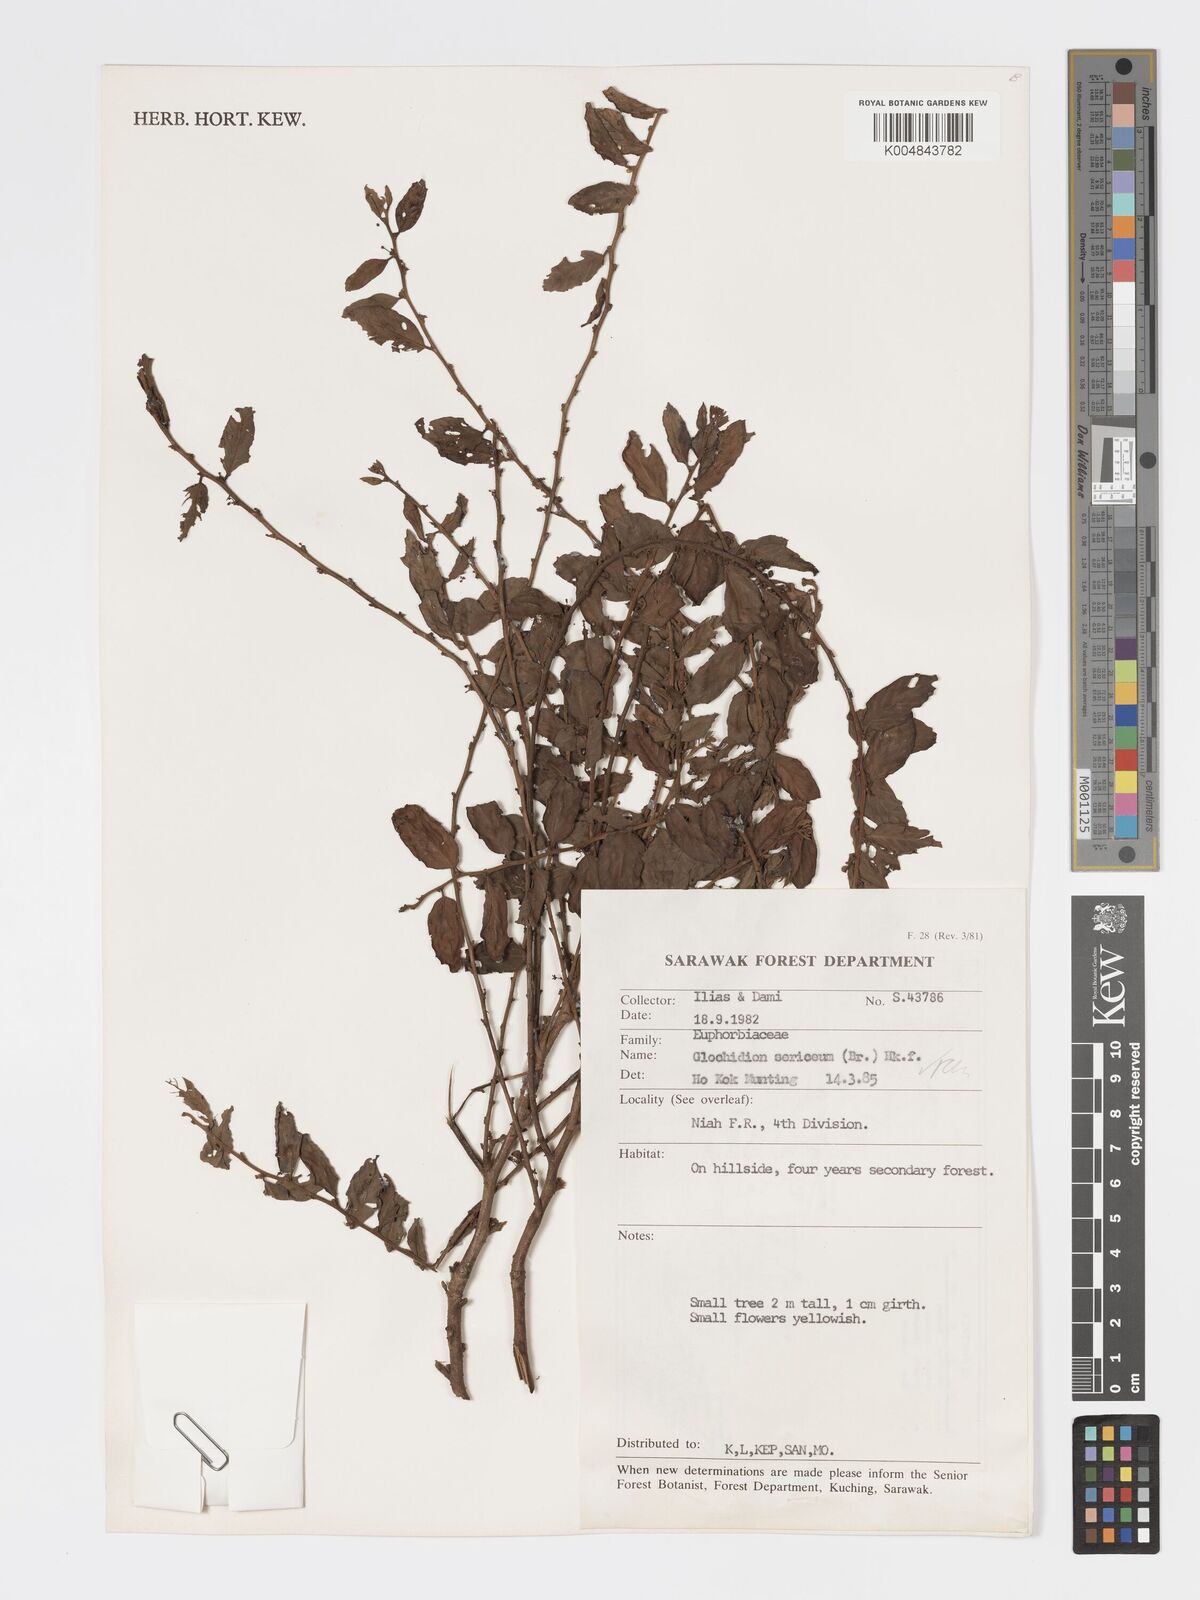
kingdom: Plantae
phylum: Tracheophyta
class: Magnoliopsida
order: Malpighiales
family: Phyllanthaceae
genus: Glochidion
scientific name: Glochidion sericeum
